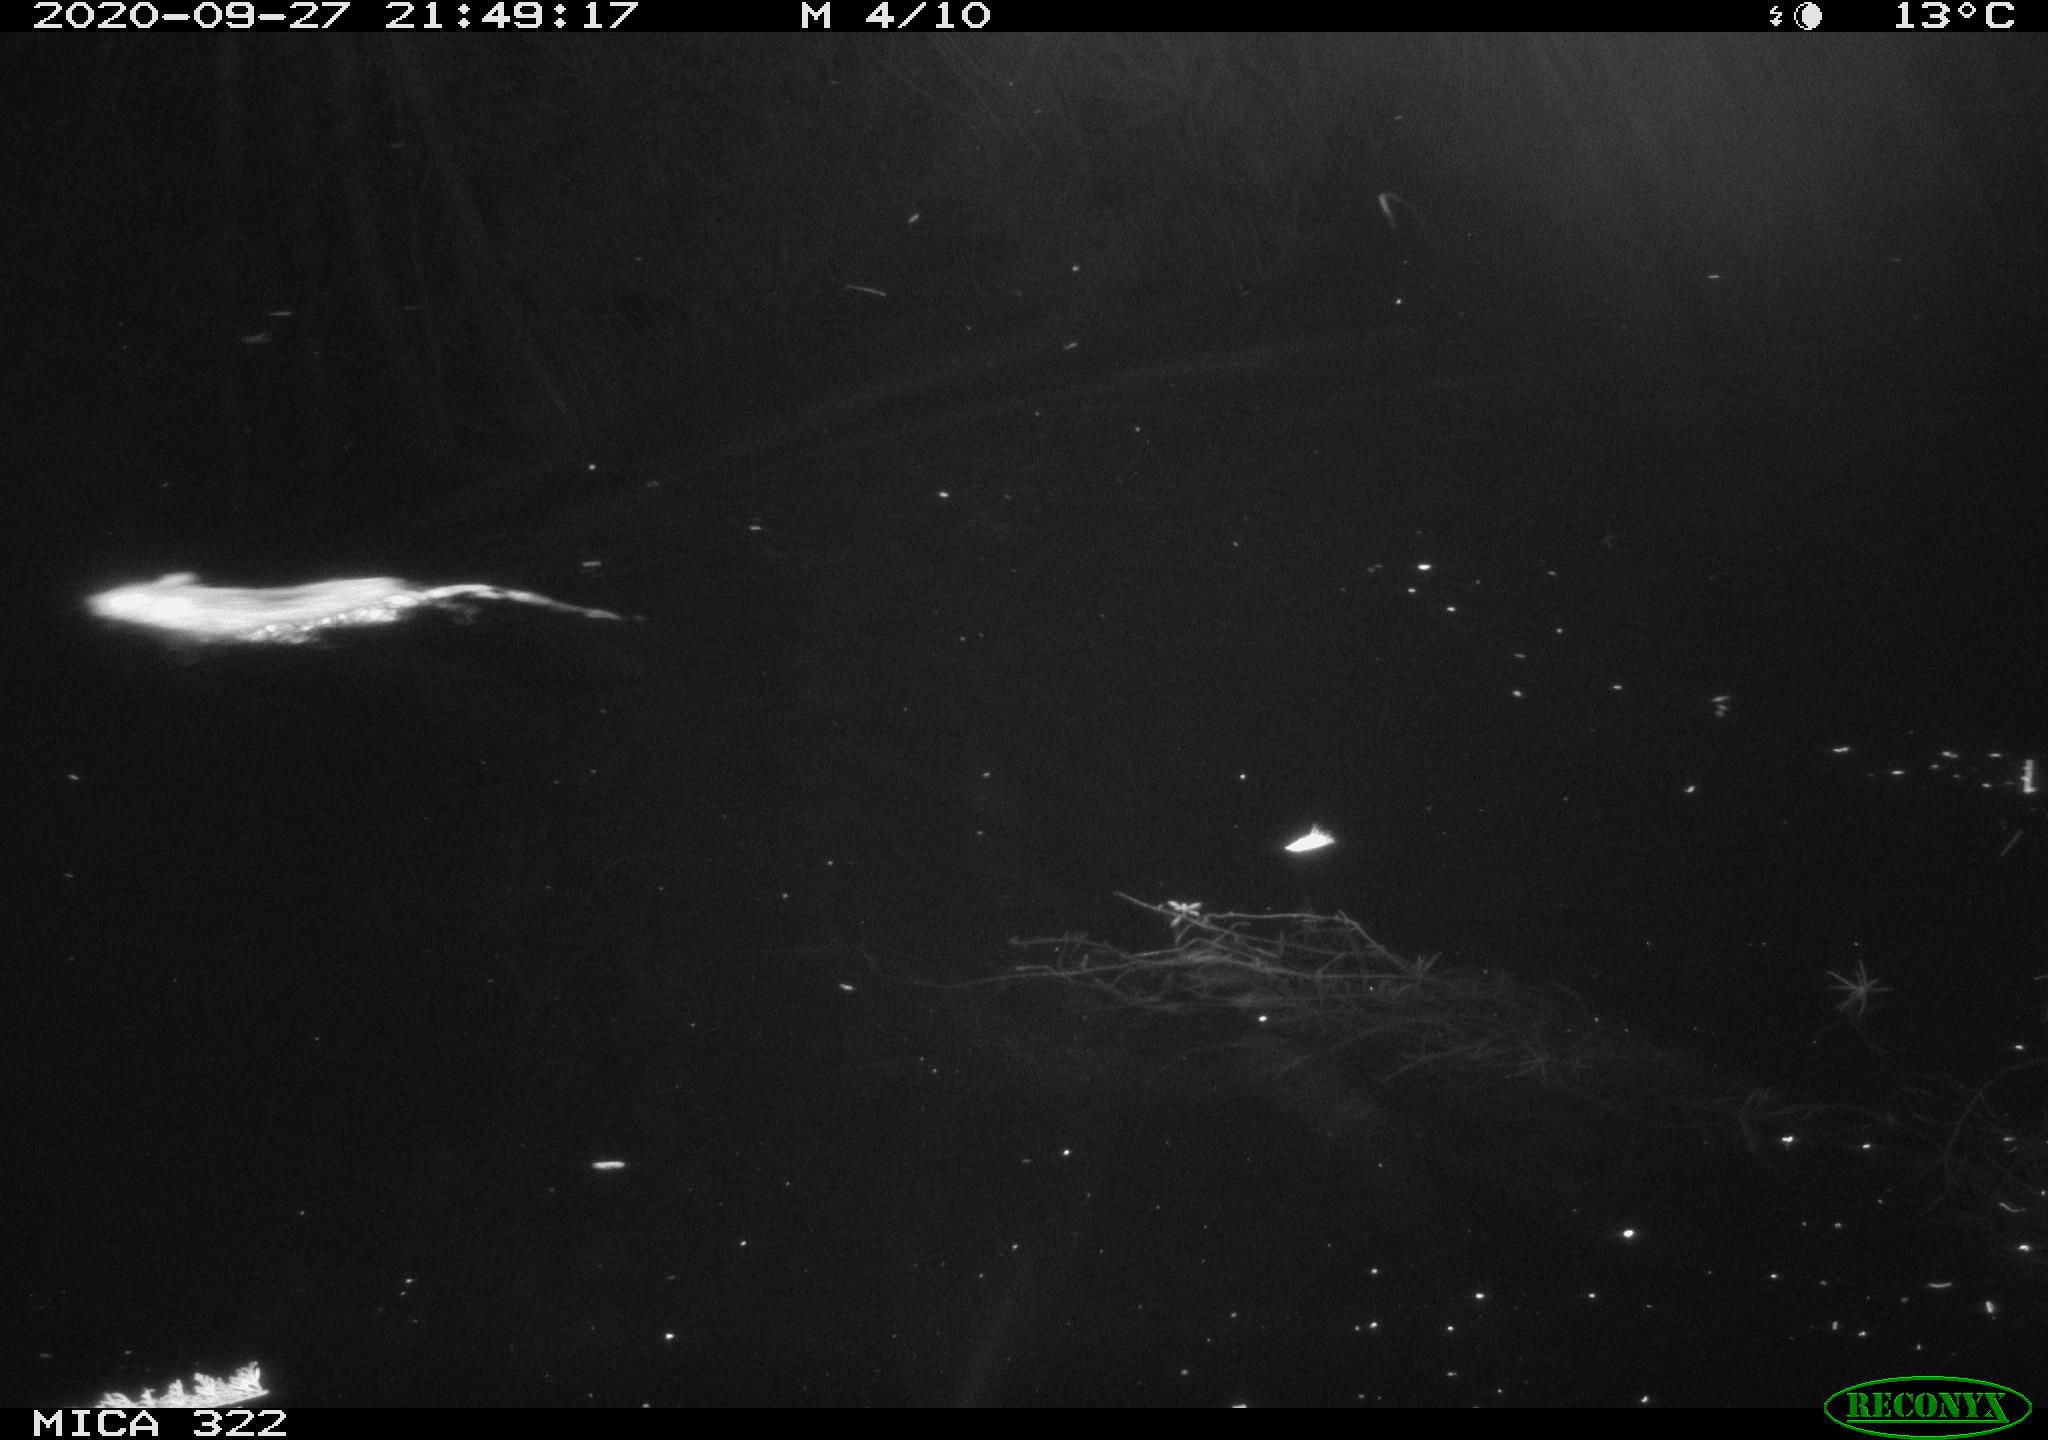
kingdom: Animalia
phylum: Chordata
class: Mammalia
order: Rodentia
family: Muridae
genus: Rattus
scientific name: Rattus norvegicus
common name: Brown rat
